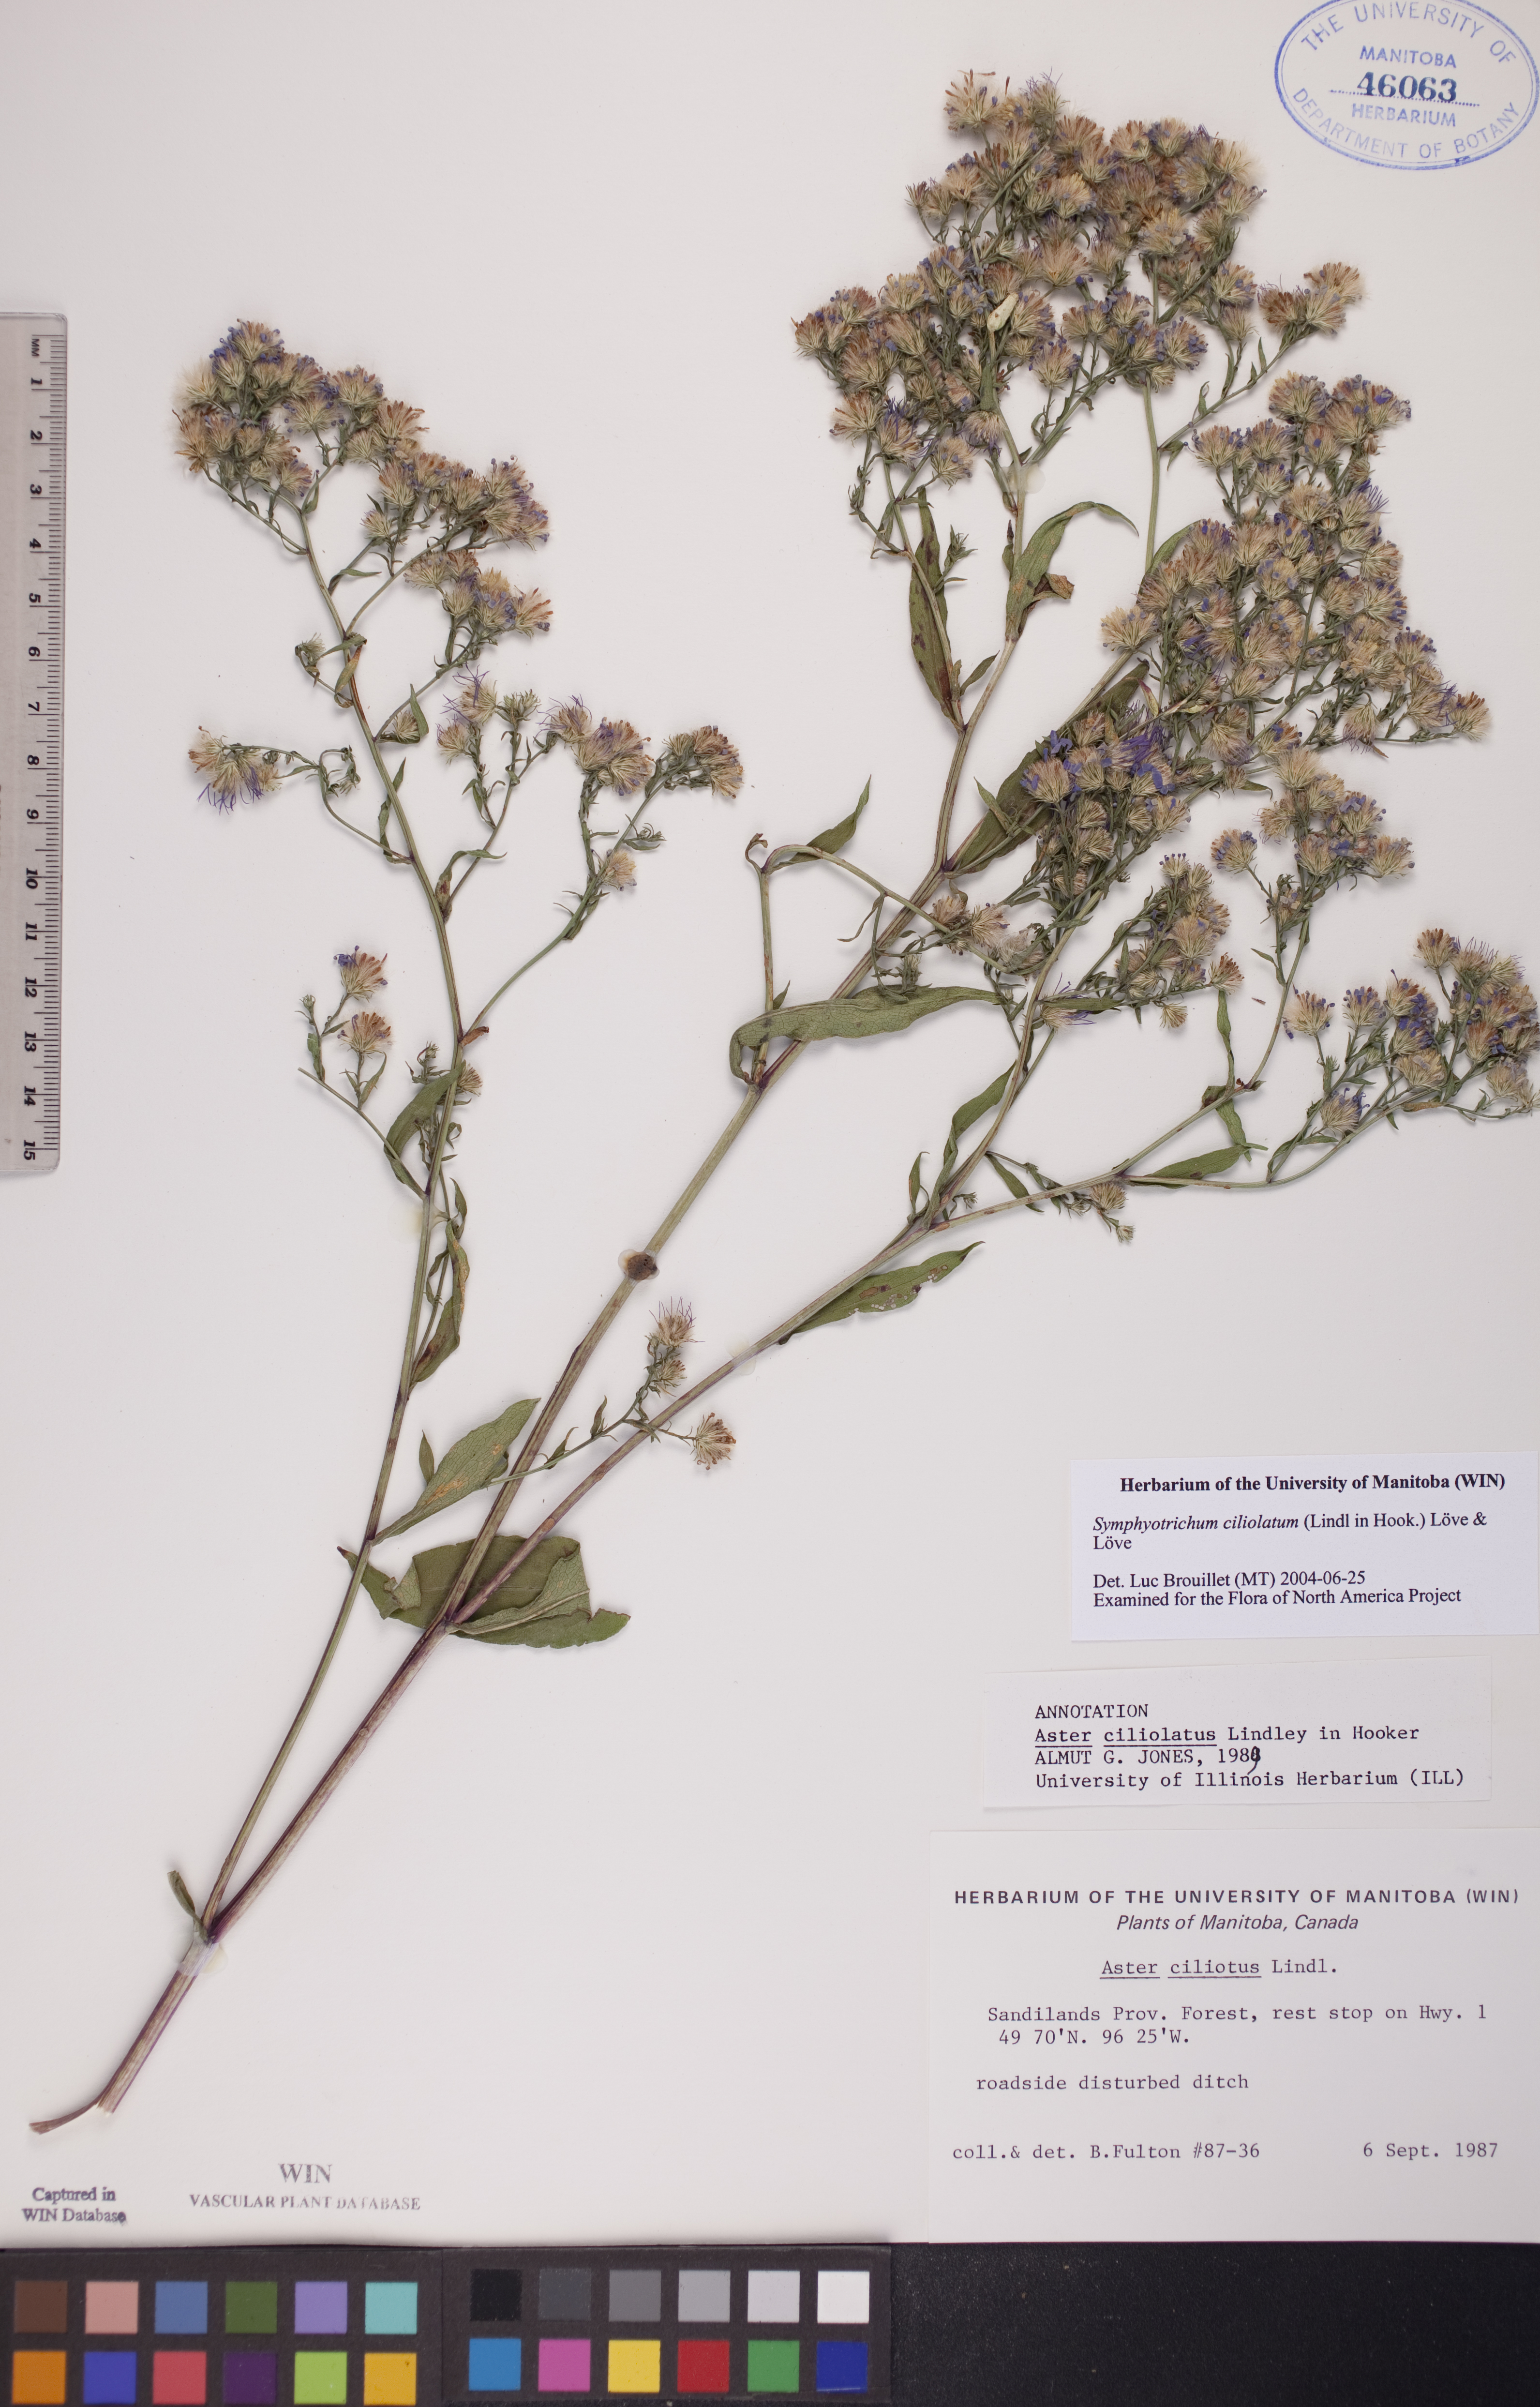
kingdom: Plantae
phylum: Tracheophyta
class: Magnoliopsida
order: Asterales
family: Asteraceae
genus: Symphyotrichum
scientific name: Symphyotrichum ciliolatum
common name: Fringed blue aster
